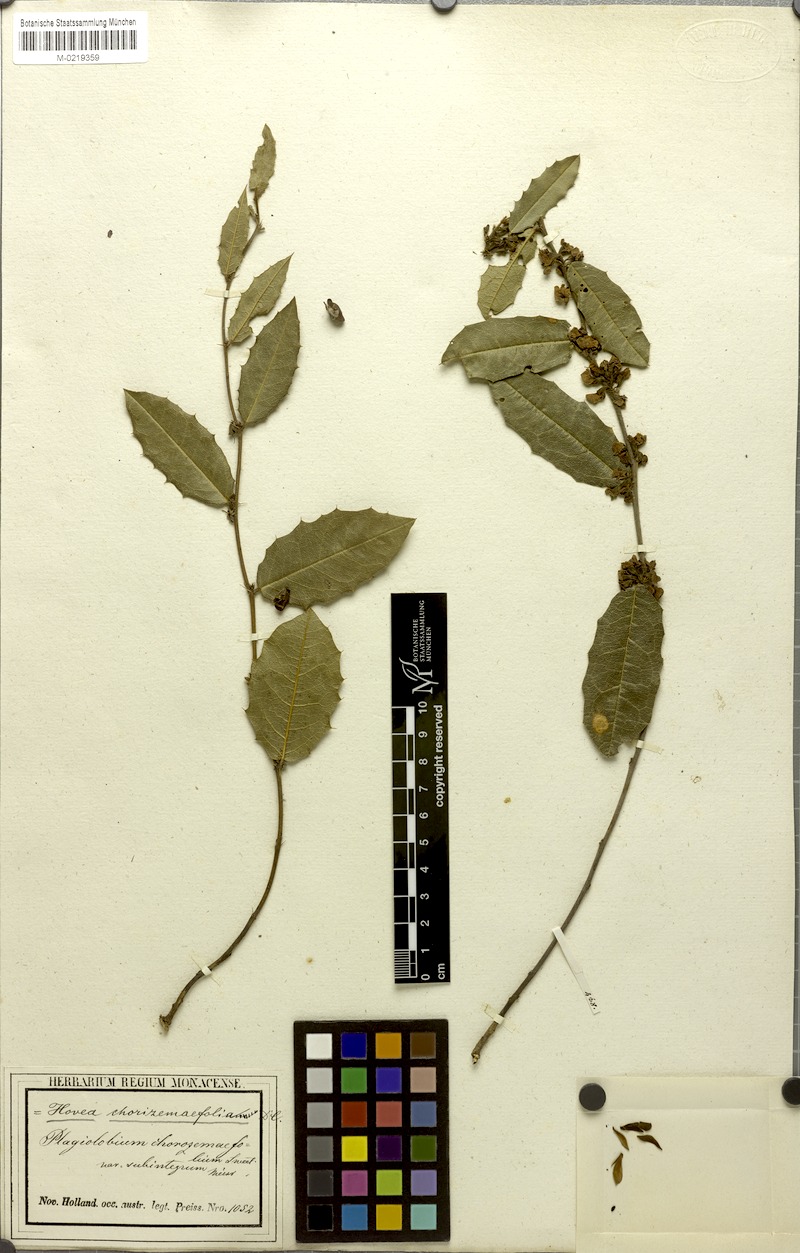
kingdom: Plantae
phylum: Tracheophyta
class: Magnoliopsida
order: Fabales
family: Fabaceae
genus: Hovea
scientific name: Hovea chorizemifolia
